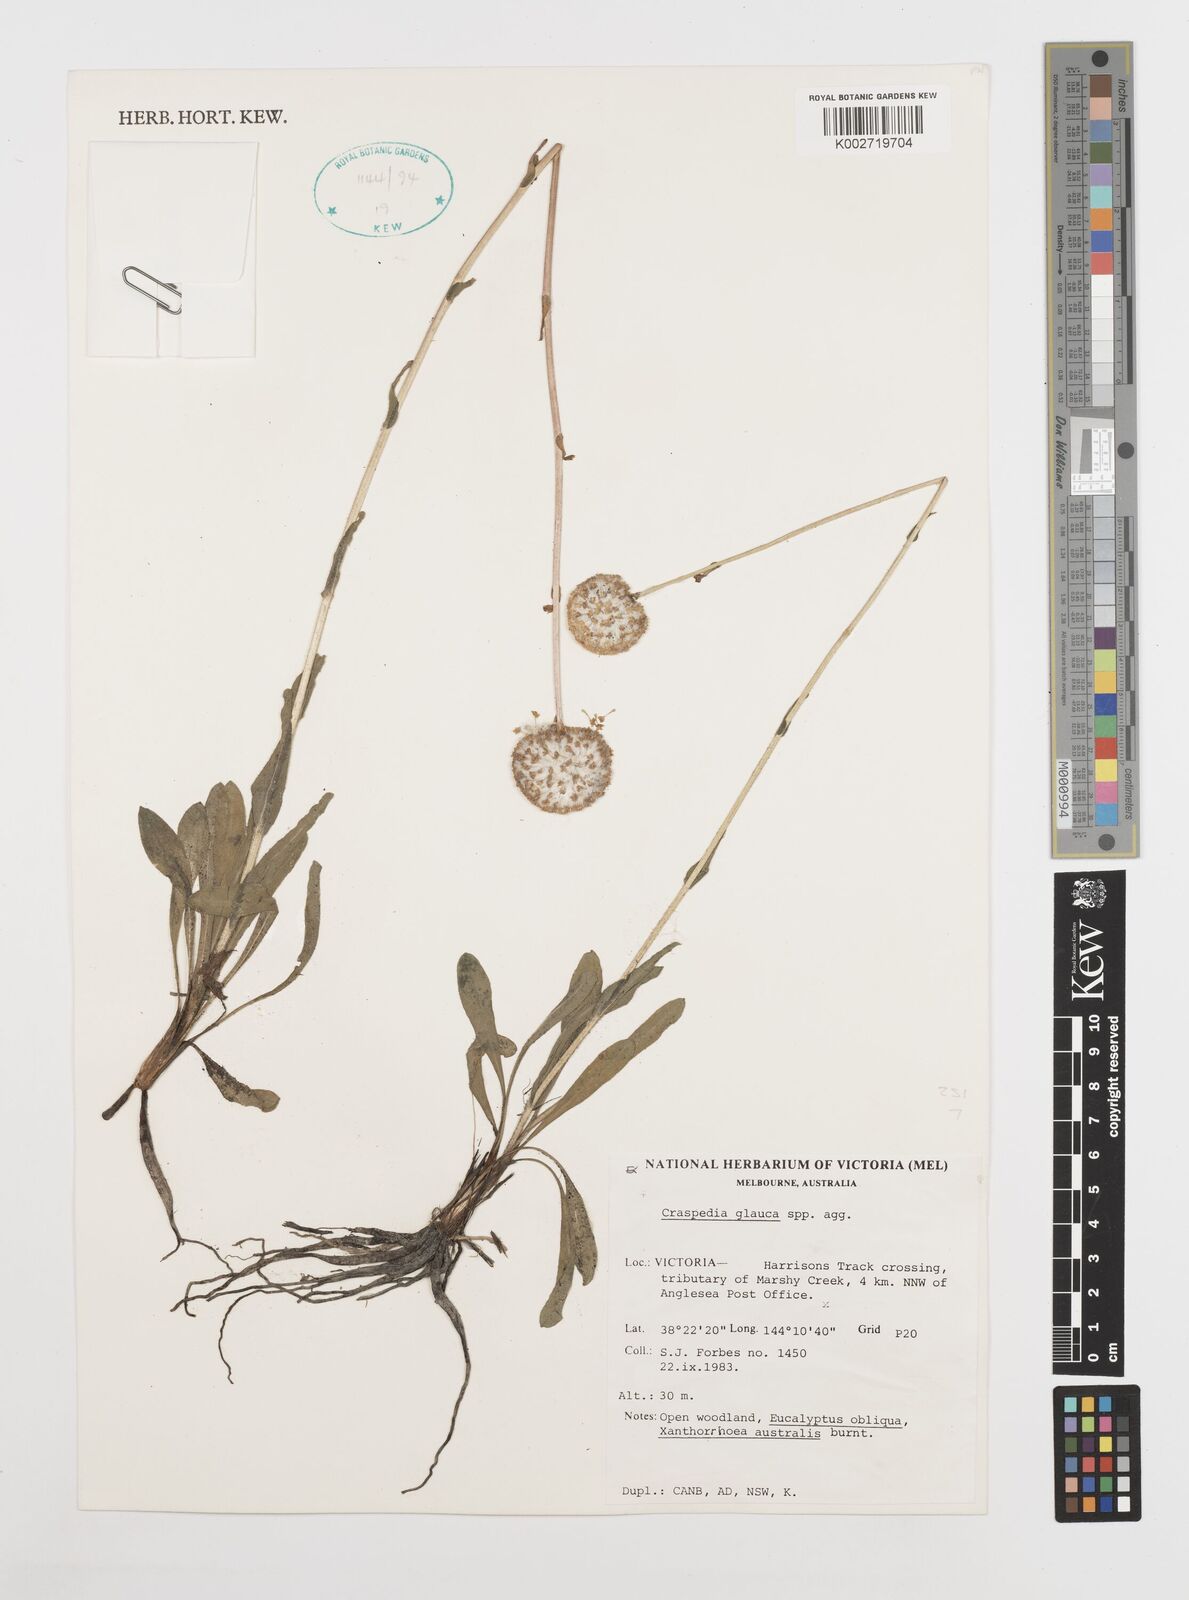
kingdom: Plantae
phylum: Tracheophyta
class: Magnoliopsida
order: Asterales
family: Asteraceae
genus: Craspedia
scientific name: Craspedia glauca
